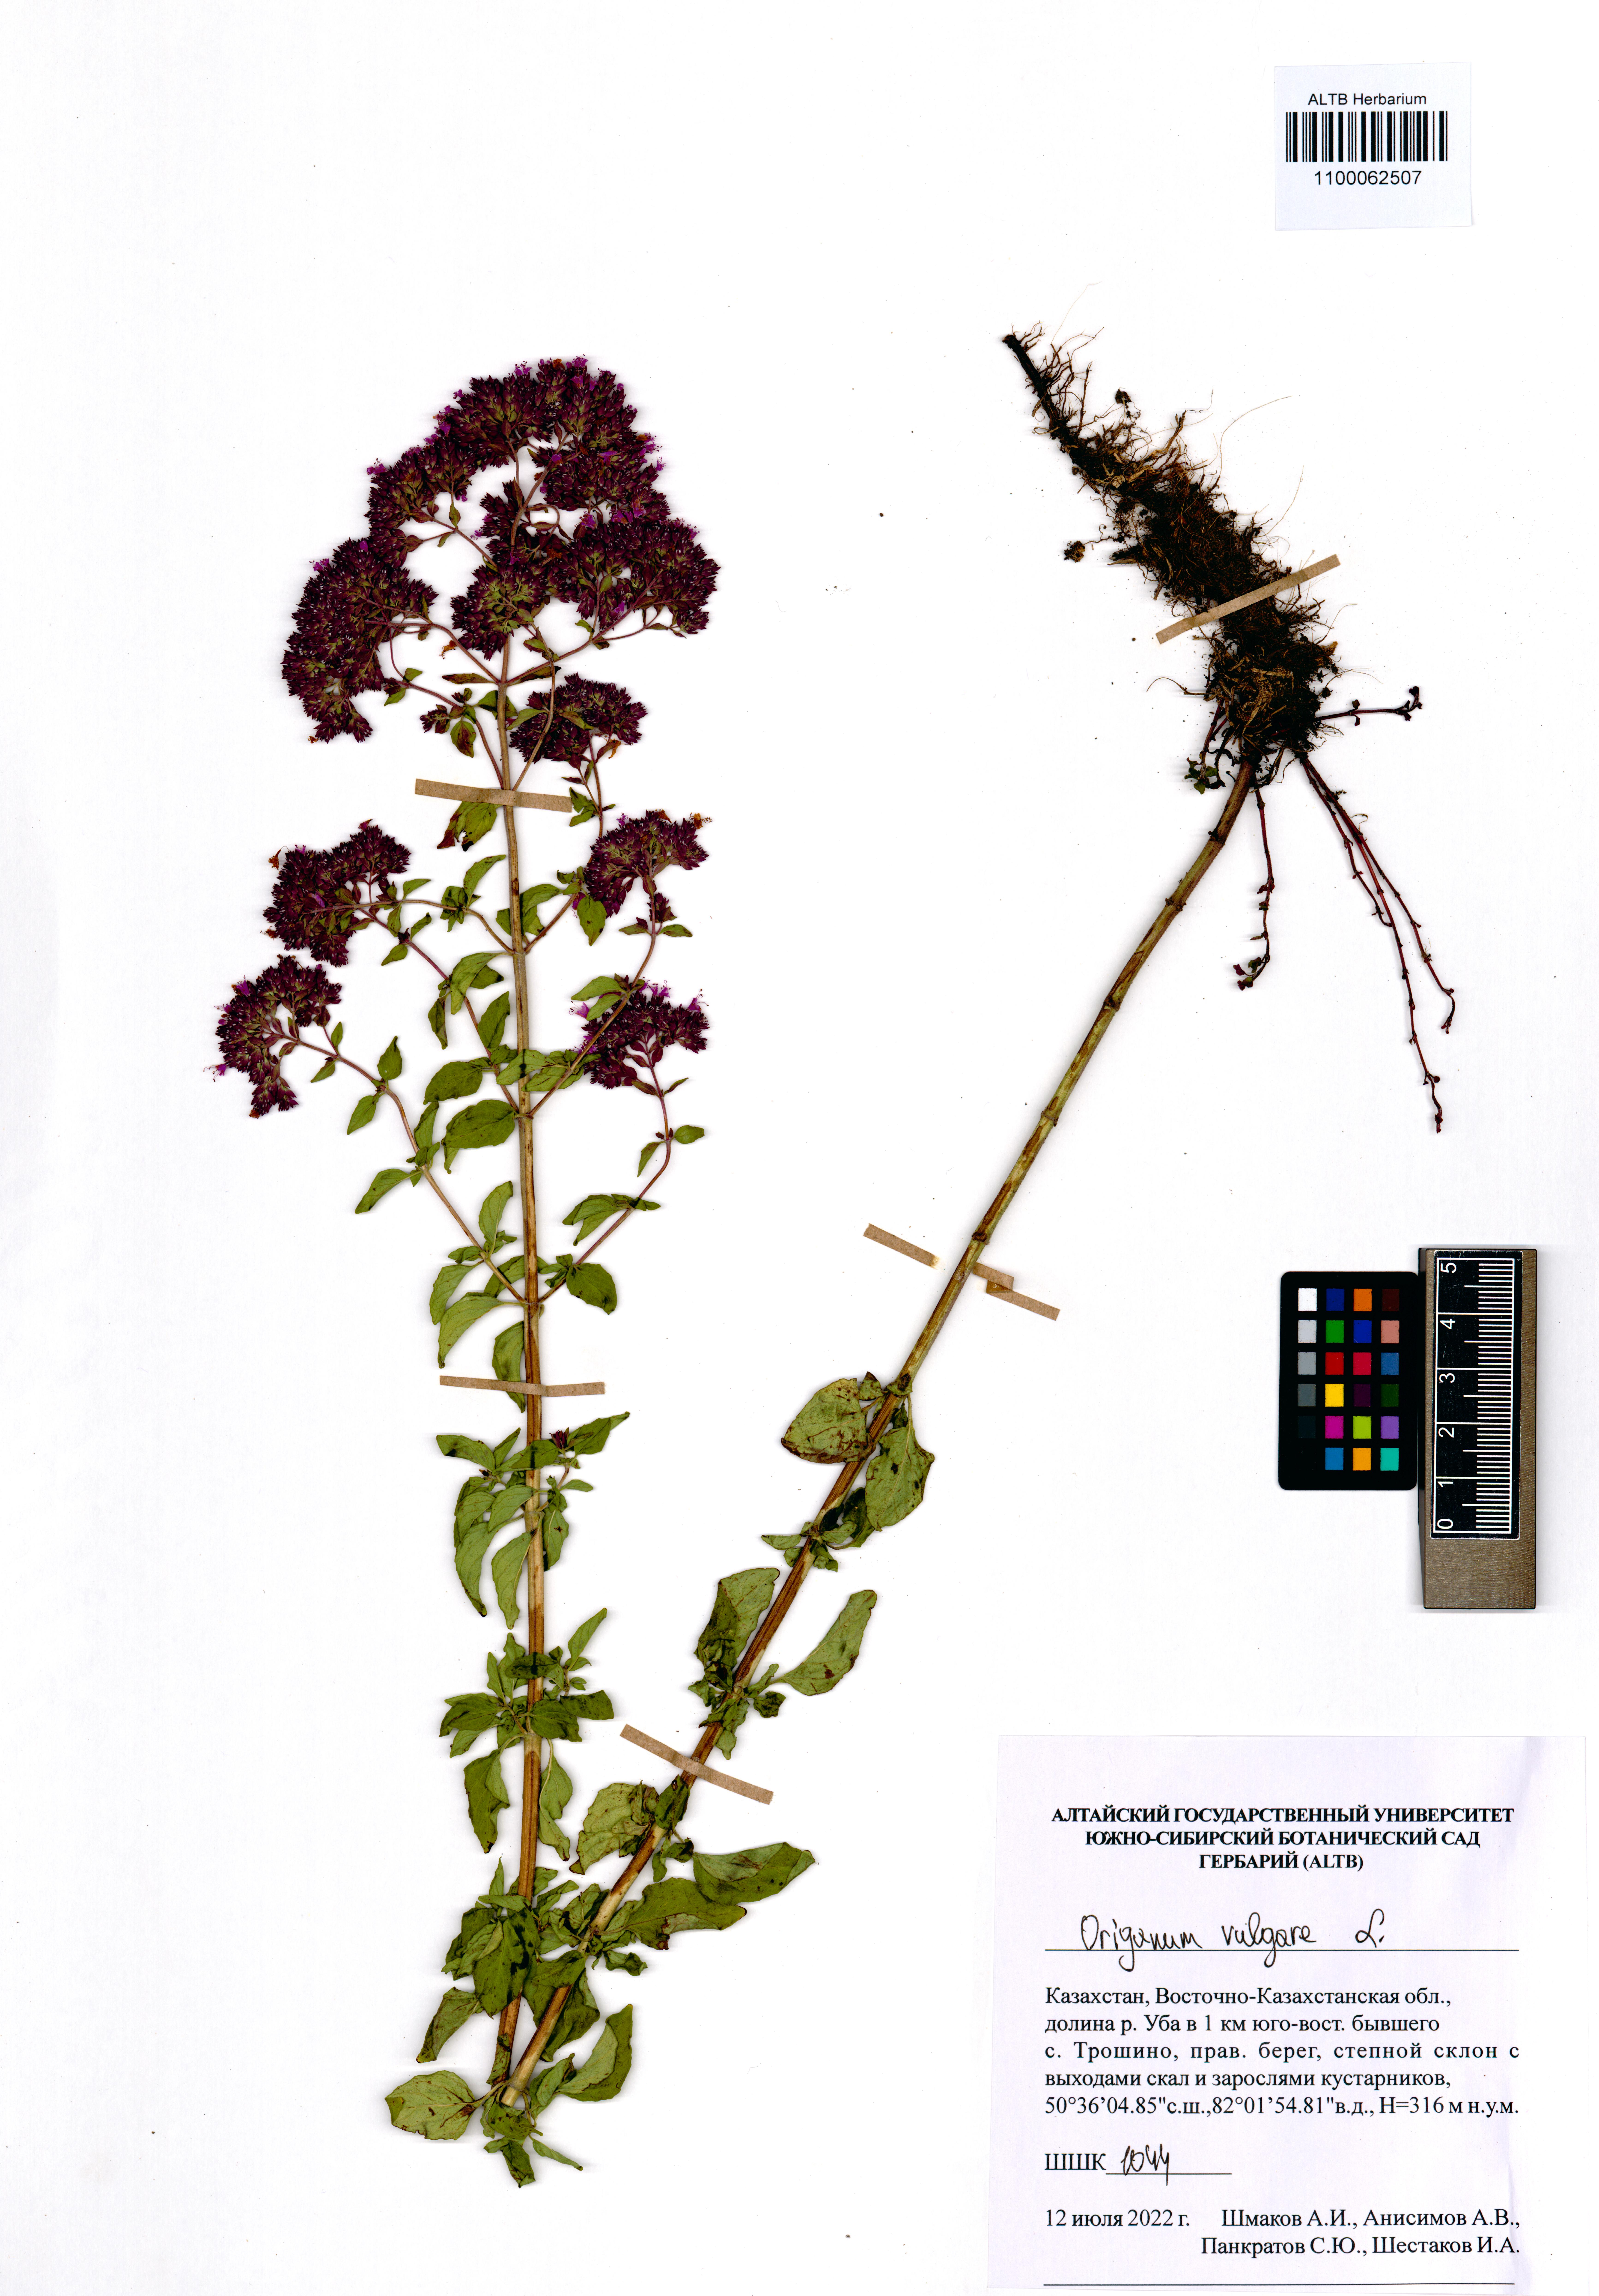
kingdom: Plantae
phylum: Tracheophyta
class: Magnoliopsida
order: Lamiales
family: Lamiaceae
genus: Origanum
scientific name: Origanum vulgare
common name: Wild marjoram
